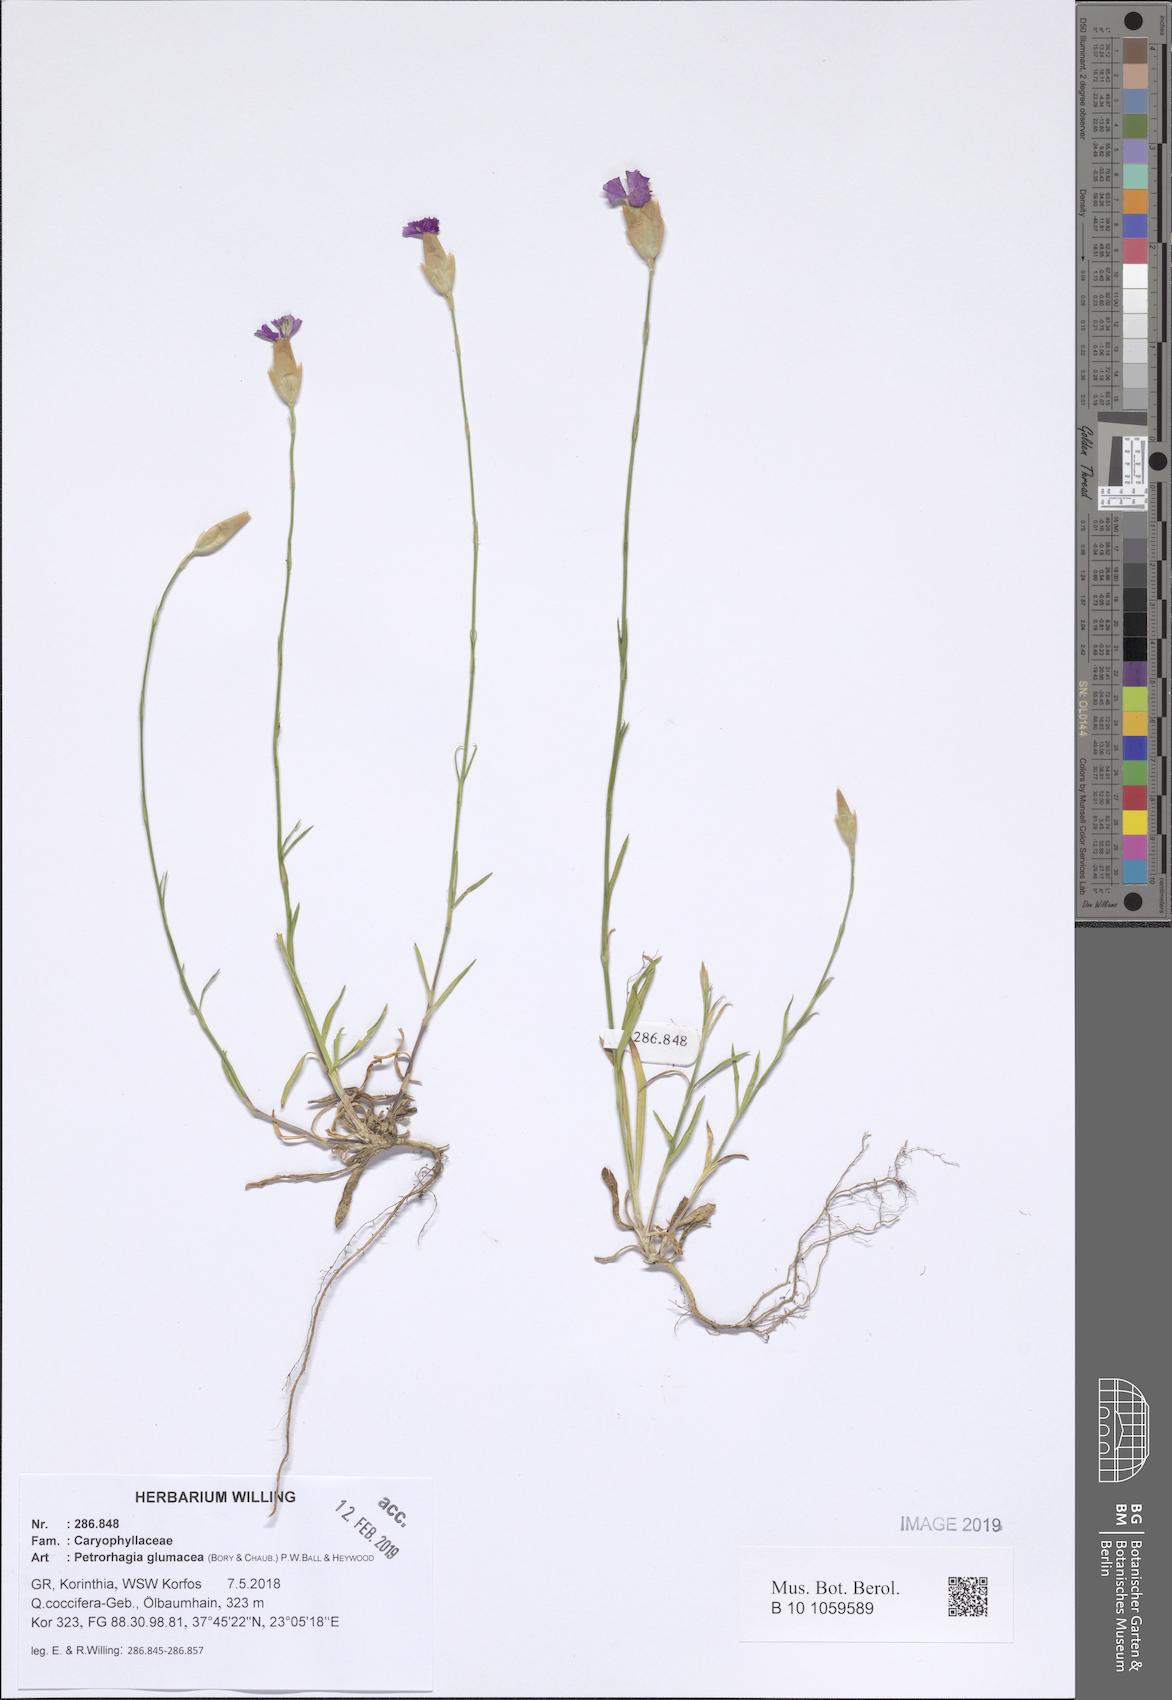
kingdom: Plantae
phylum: Tracheophyta
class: Magnoliopsida
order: Caryophyllales
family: Caryophyllaceae
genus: Petrorhagia
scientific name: Petrorhagia glumacea
